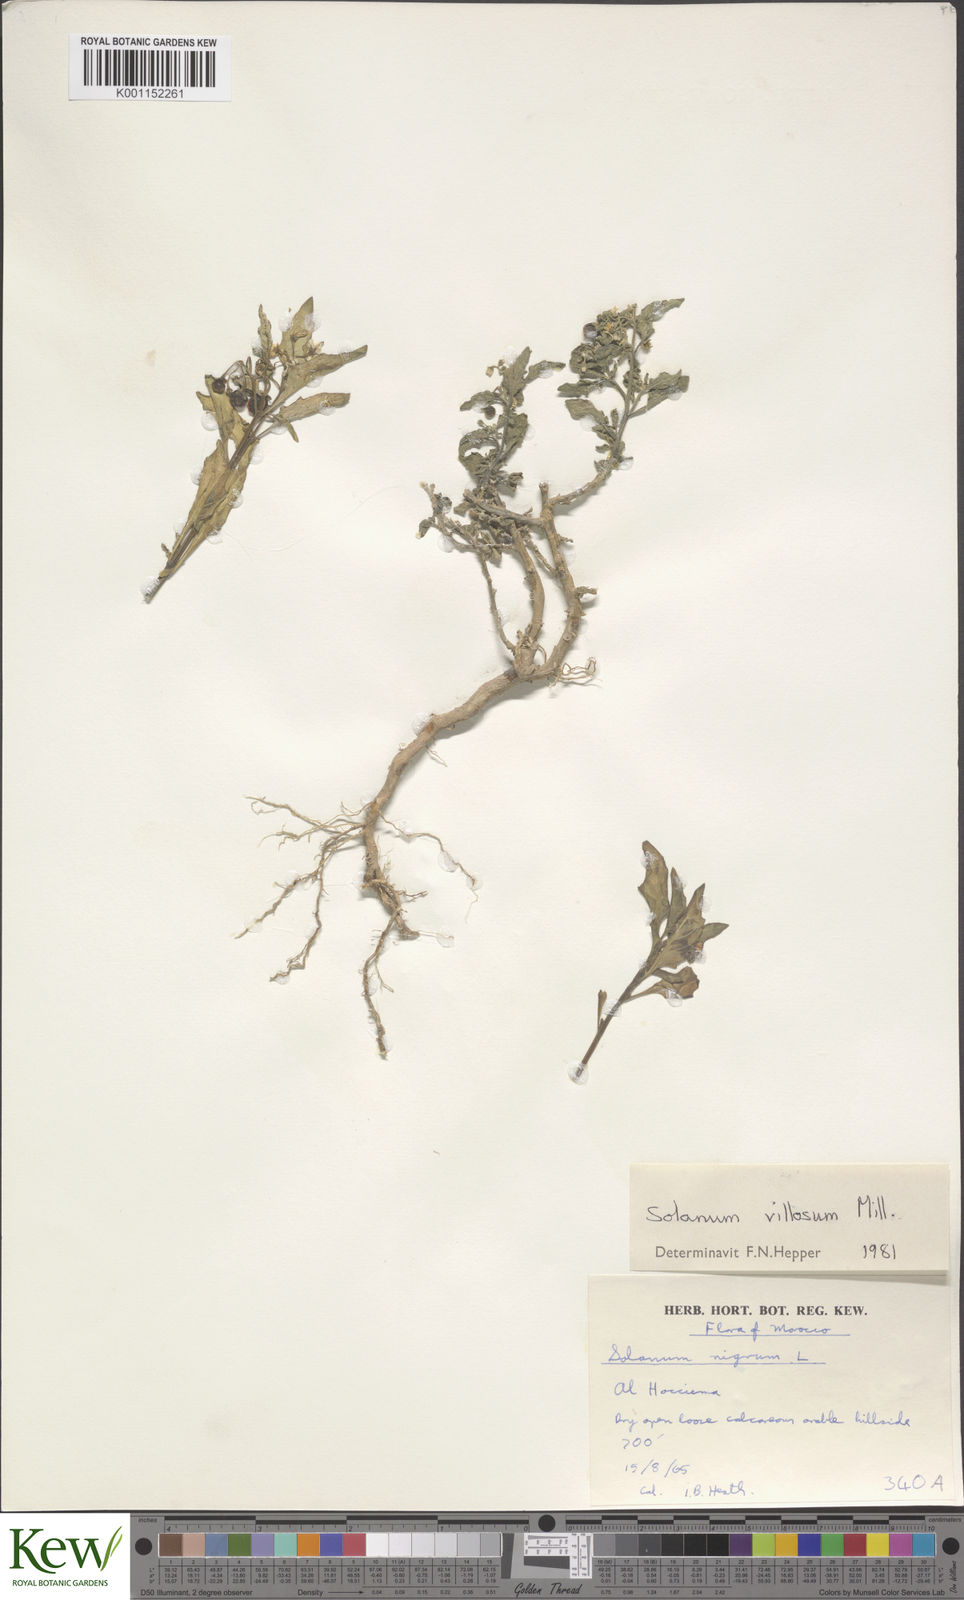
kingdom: Plantae
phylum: Tracheophyta
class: Magnoliopsida
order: Solanales
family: Solanaceae
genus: Solanum
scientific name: Solanum villosum
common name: Red nightshade
